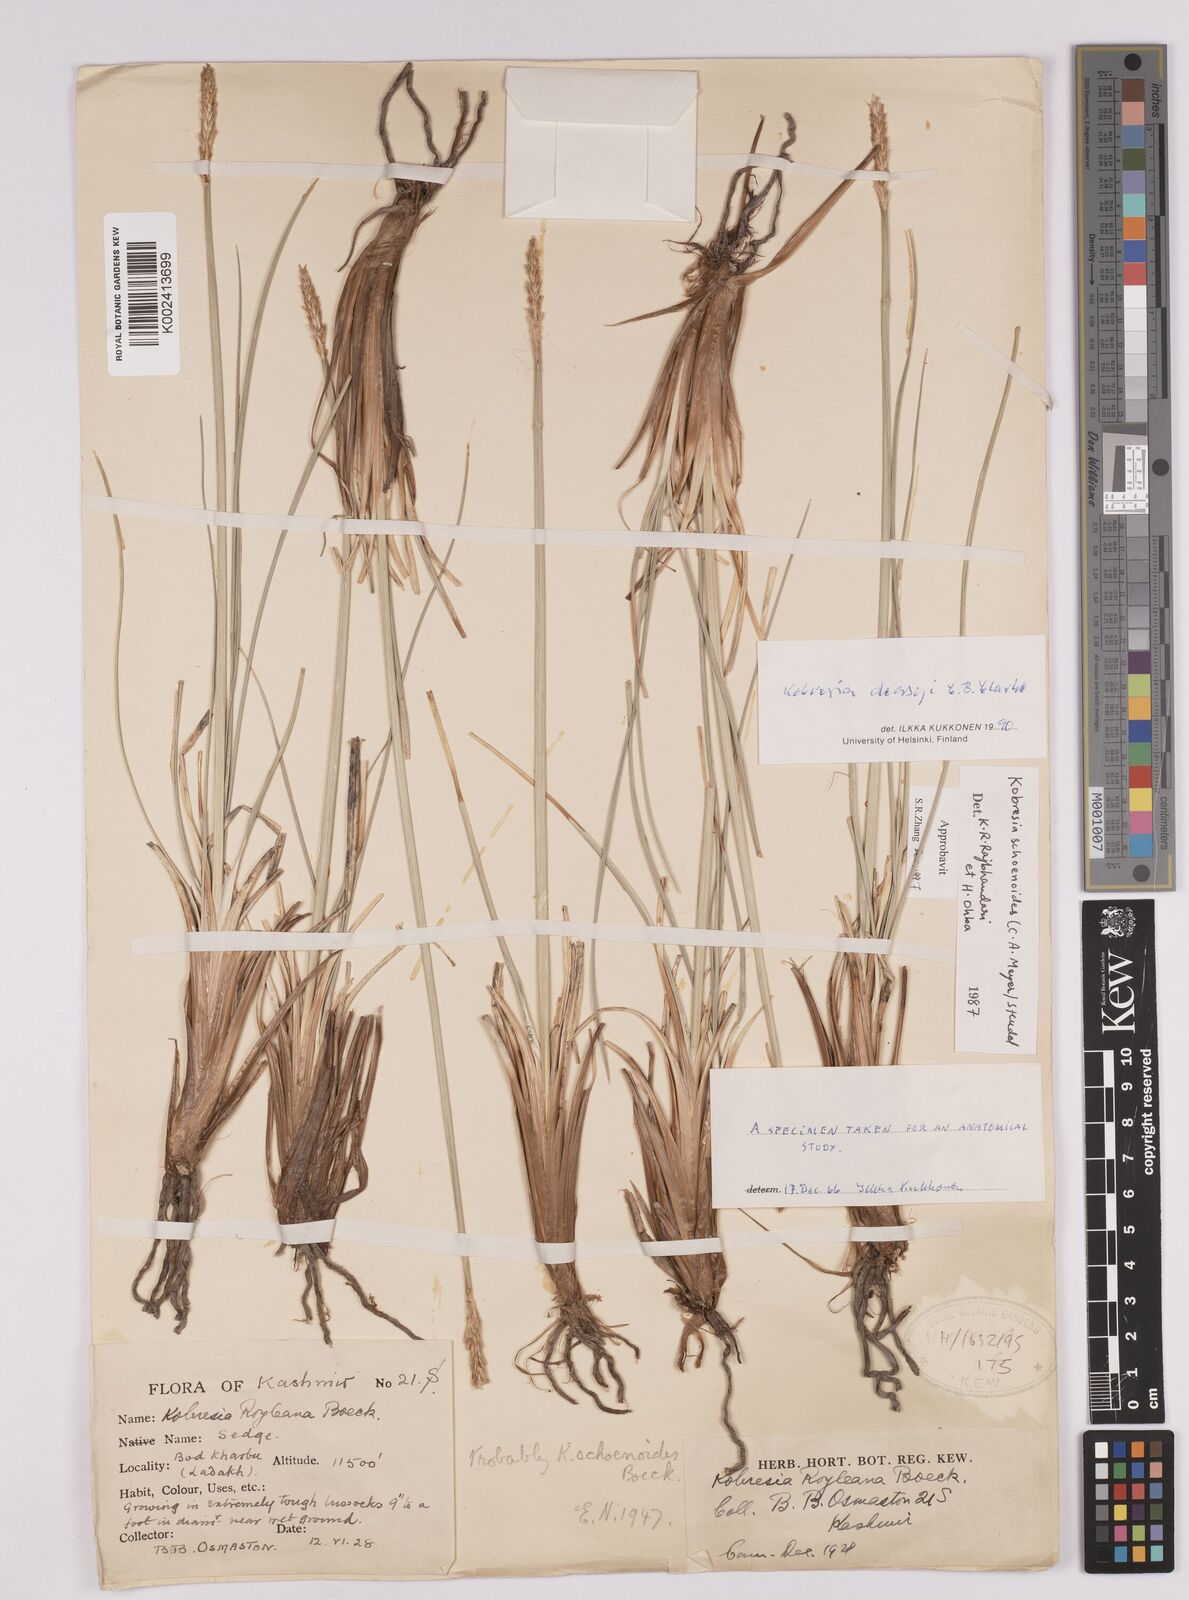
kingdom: Plantae
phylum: Tracheophyta
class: Liliopsida
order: Poales
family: Cyperaceae
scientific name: Cyperaceae
